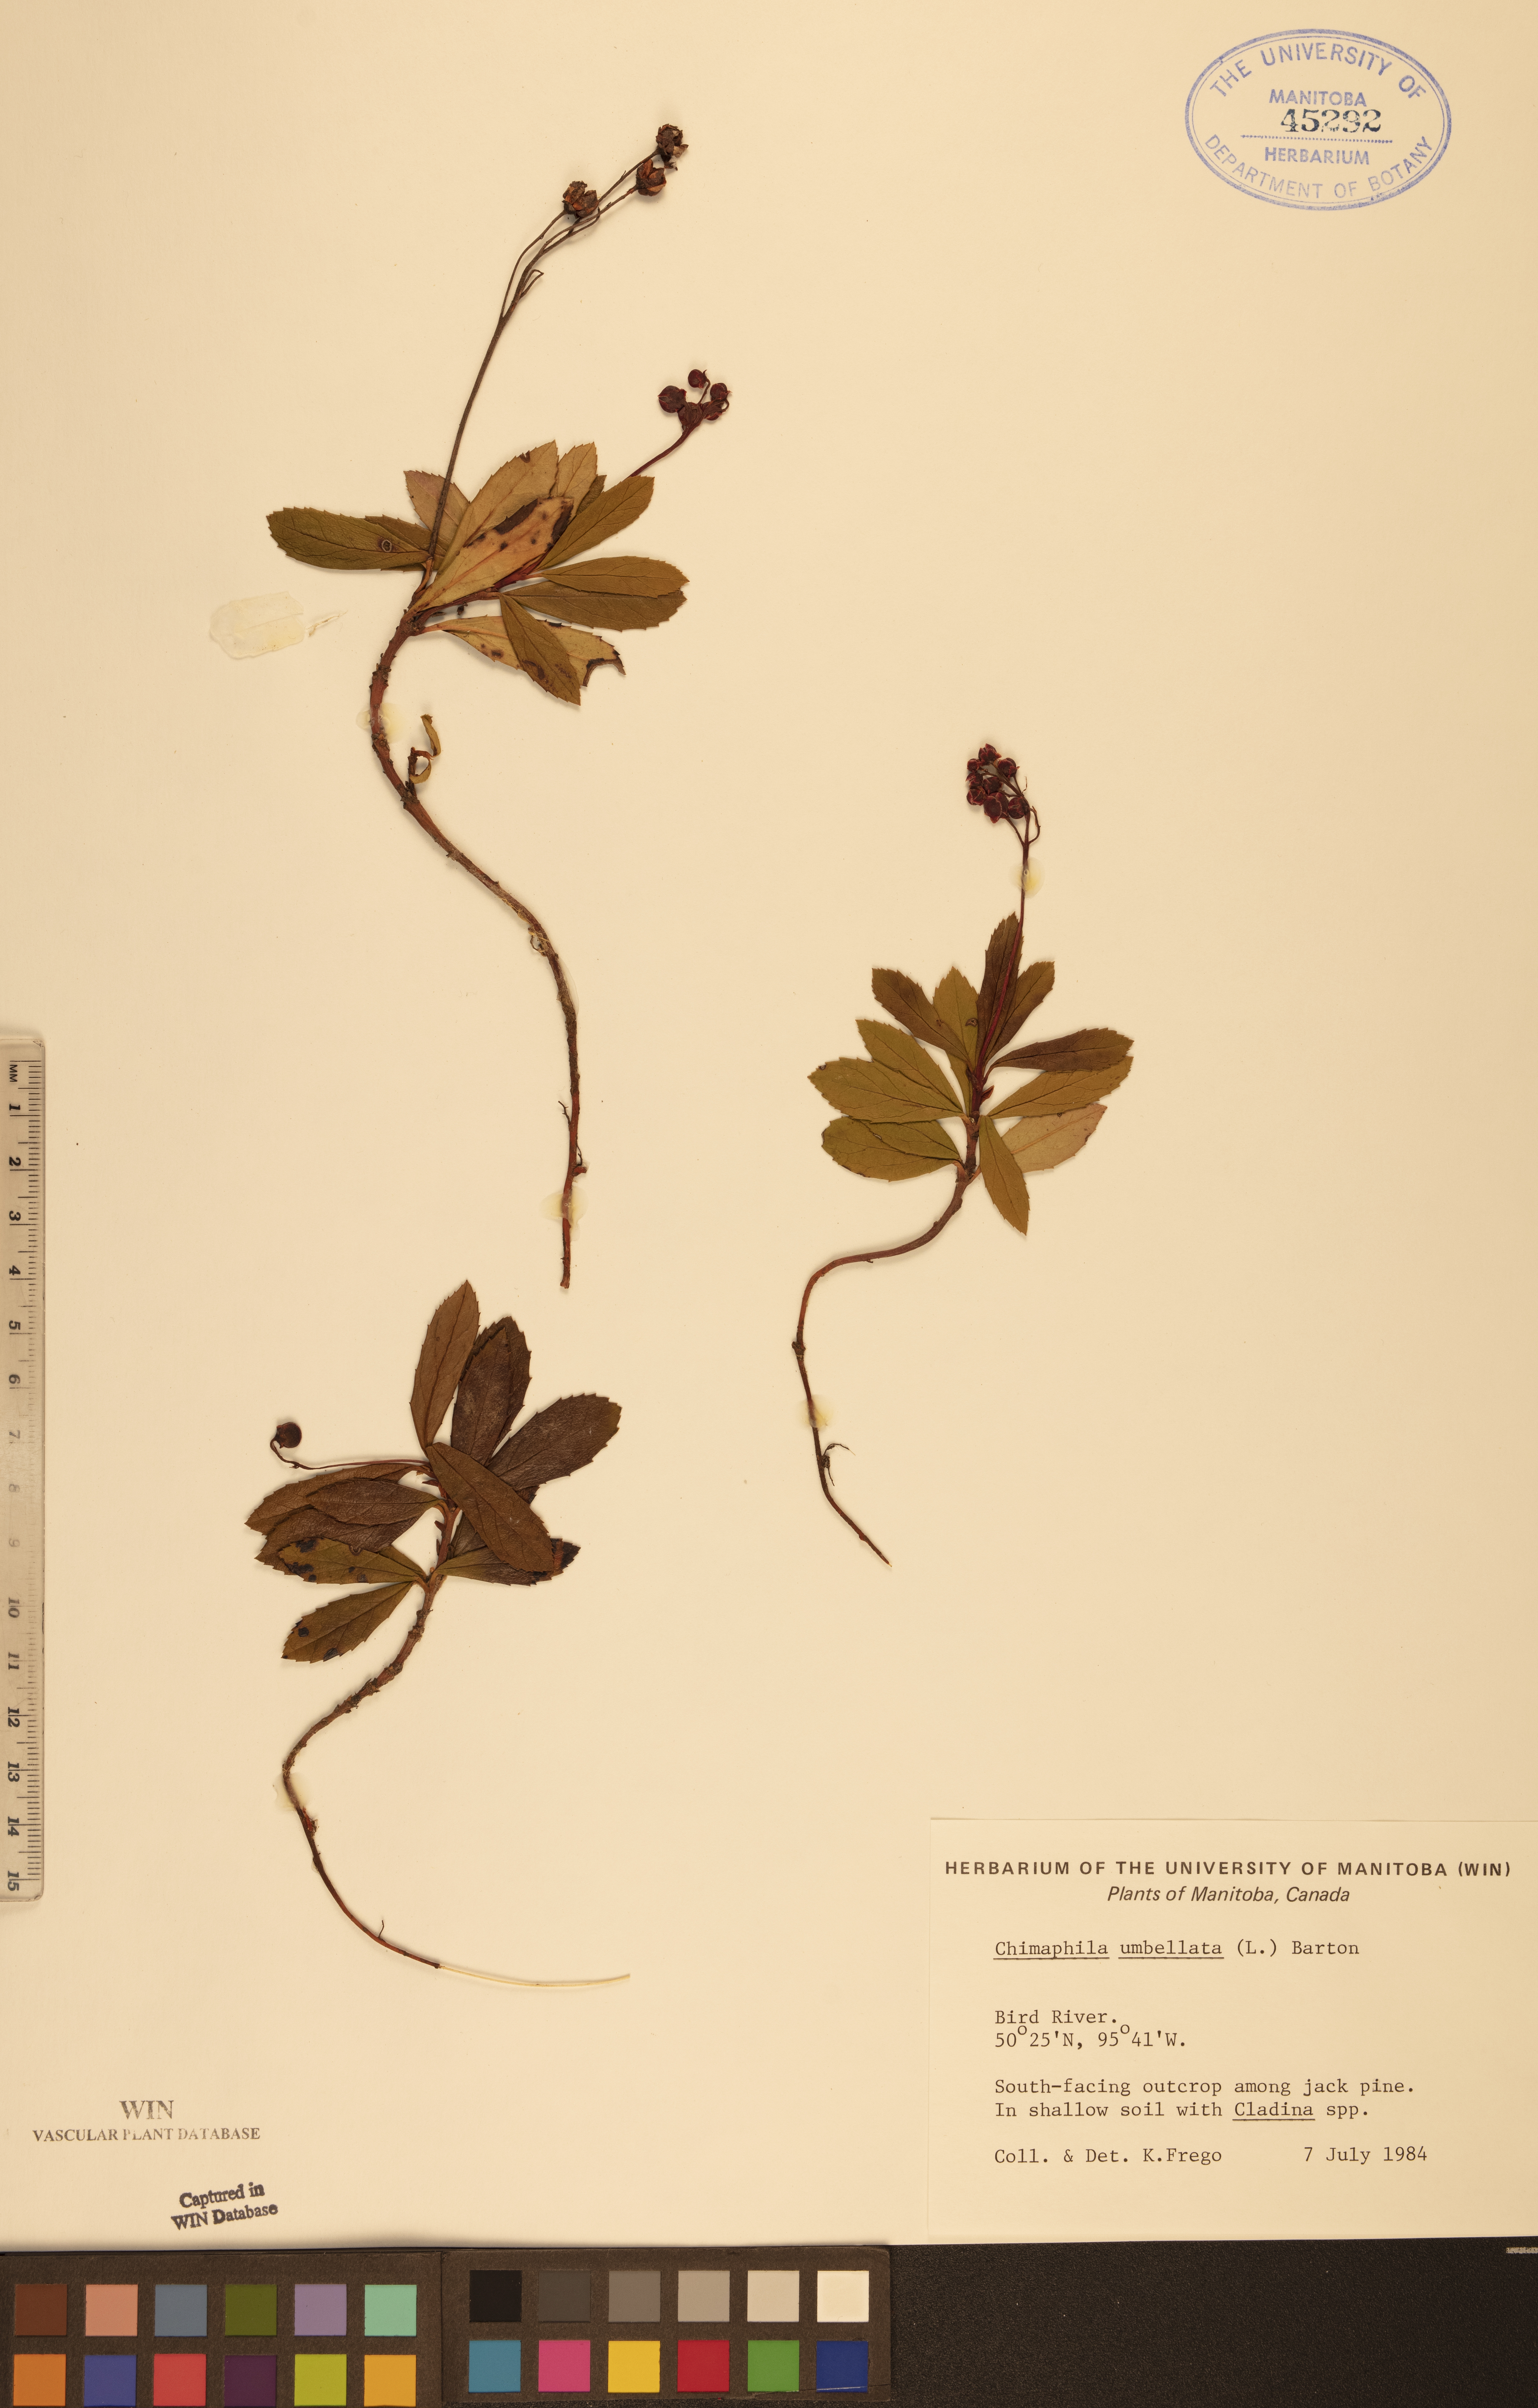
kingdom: Plantae
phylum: Tracheophyta
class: Magnoliopsida
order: Ericales
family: Ericaceae
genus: Chimaphila
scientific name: Chimaphila umbellata
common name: Pipsissewa
